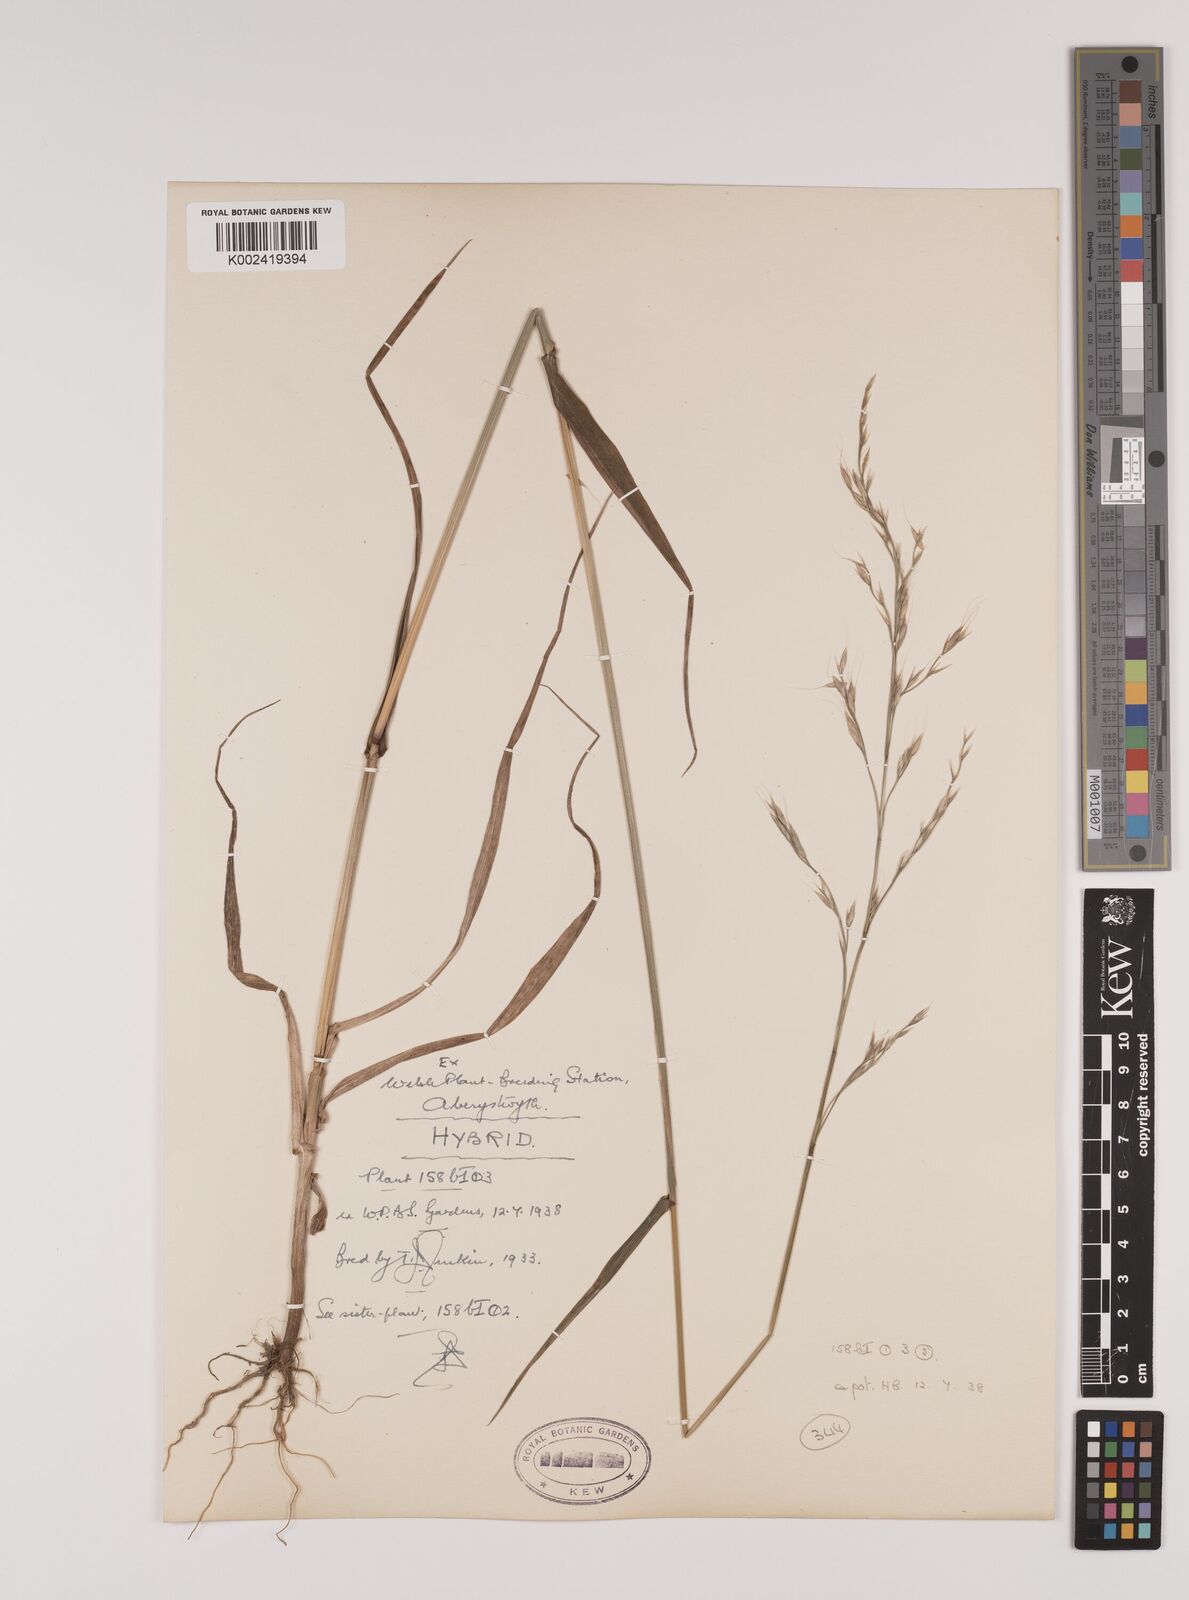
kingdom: Plantae
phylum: Tracheophyta
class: Liliopsida
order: Poales
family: Poaceae
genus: Lolium
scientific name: Lolium giganteum
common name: Giant fescue
